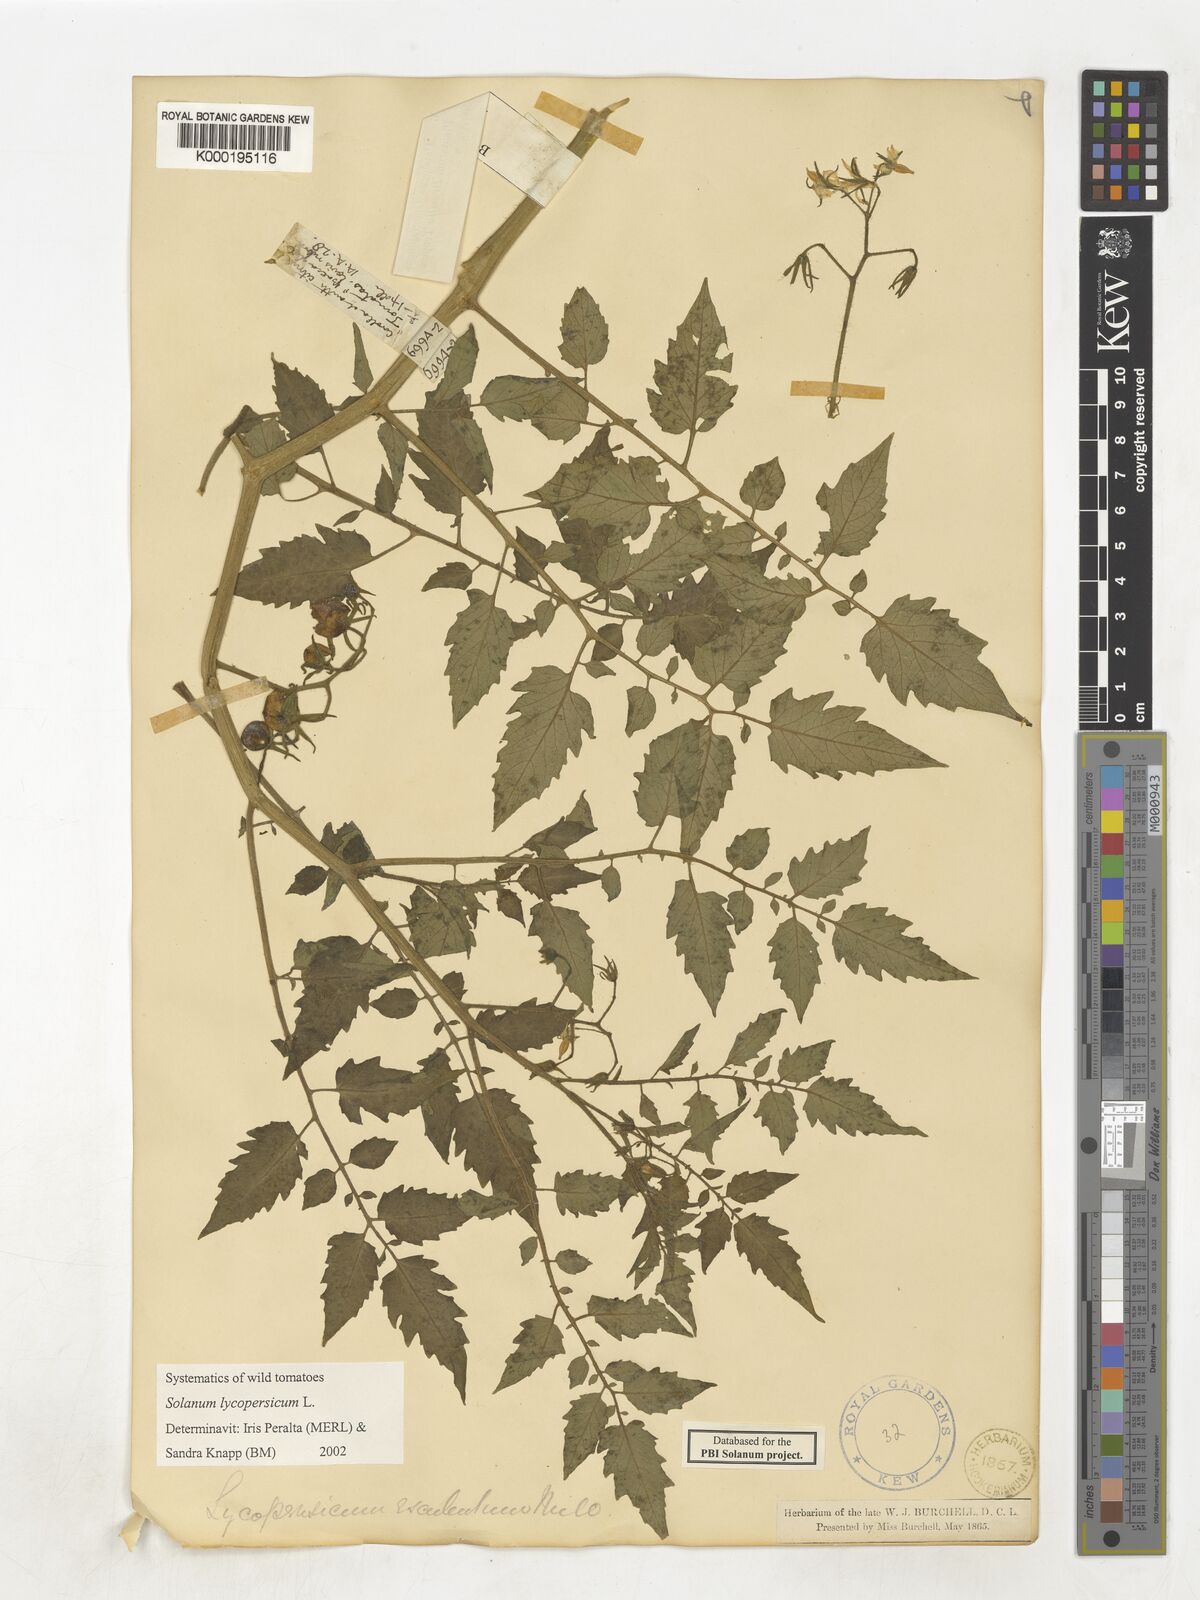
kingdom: Plantae
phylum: Tracheophyta
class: Magnoliopsida
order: Solanales
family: Solanaceae
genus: Solanum
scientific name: Solanum lycopersicum
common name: Garden tomato
